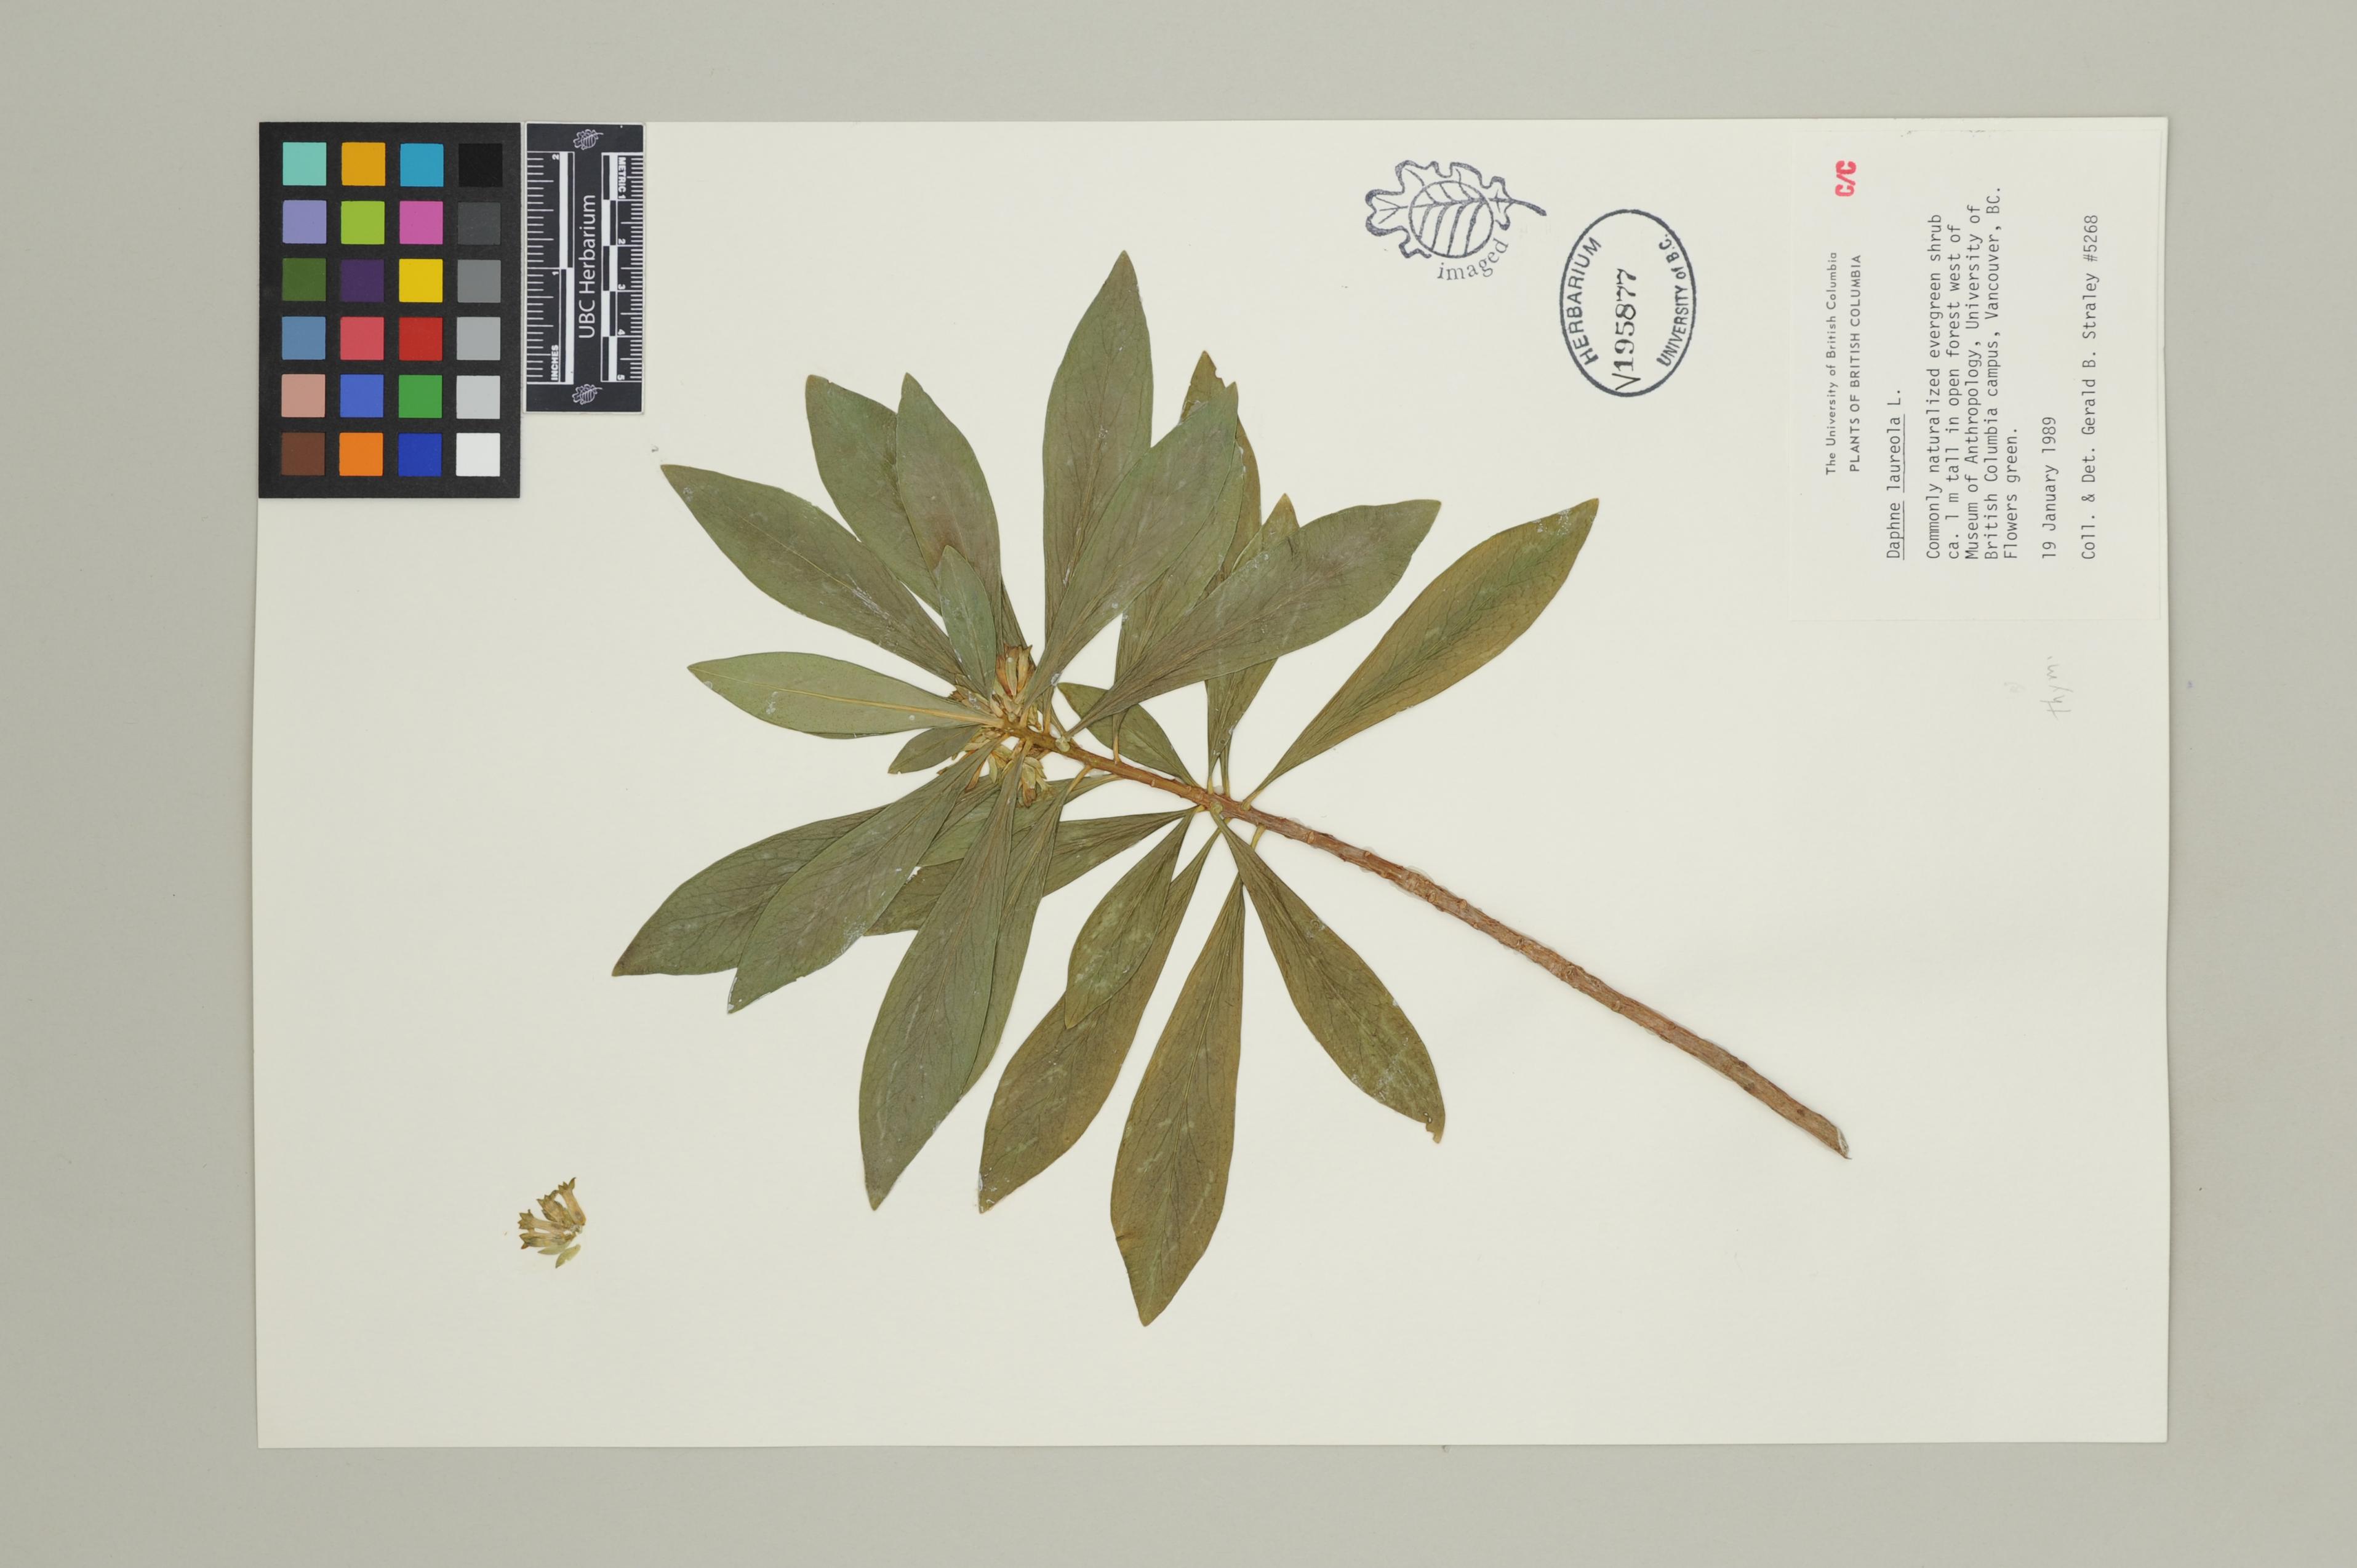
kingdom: Plantae
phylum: Tracheophyta
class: Magnoliopsida
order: Malvales
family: Thymelaeaceae
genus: Daphne
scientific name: Daphne laureola
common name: Spurge-laurel
